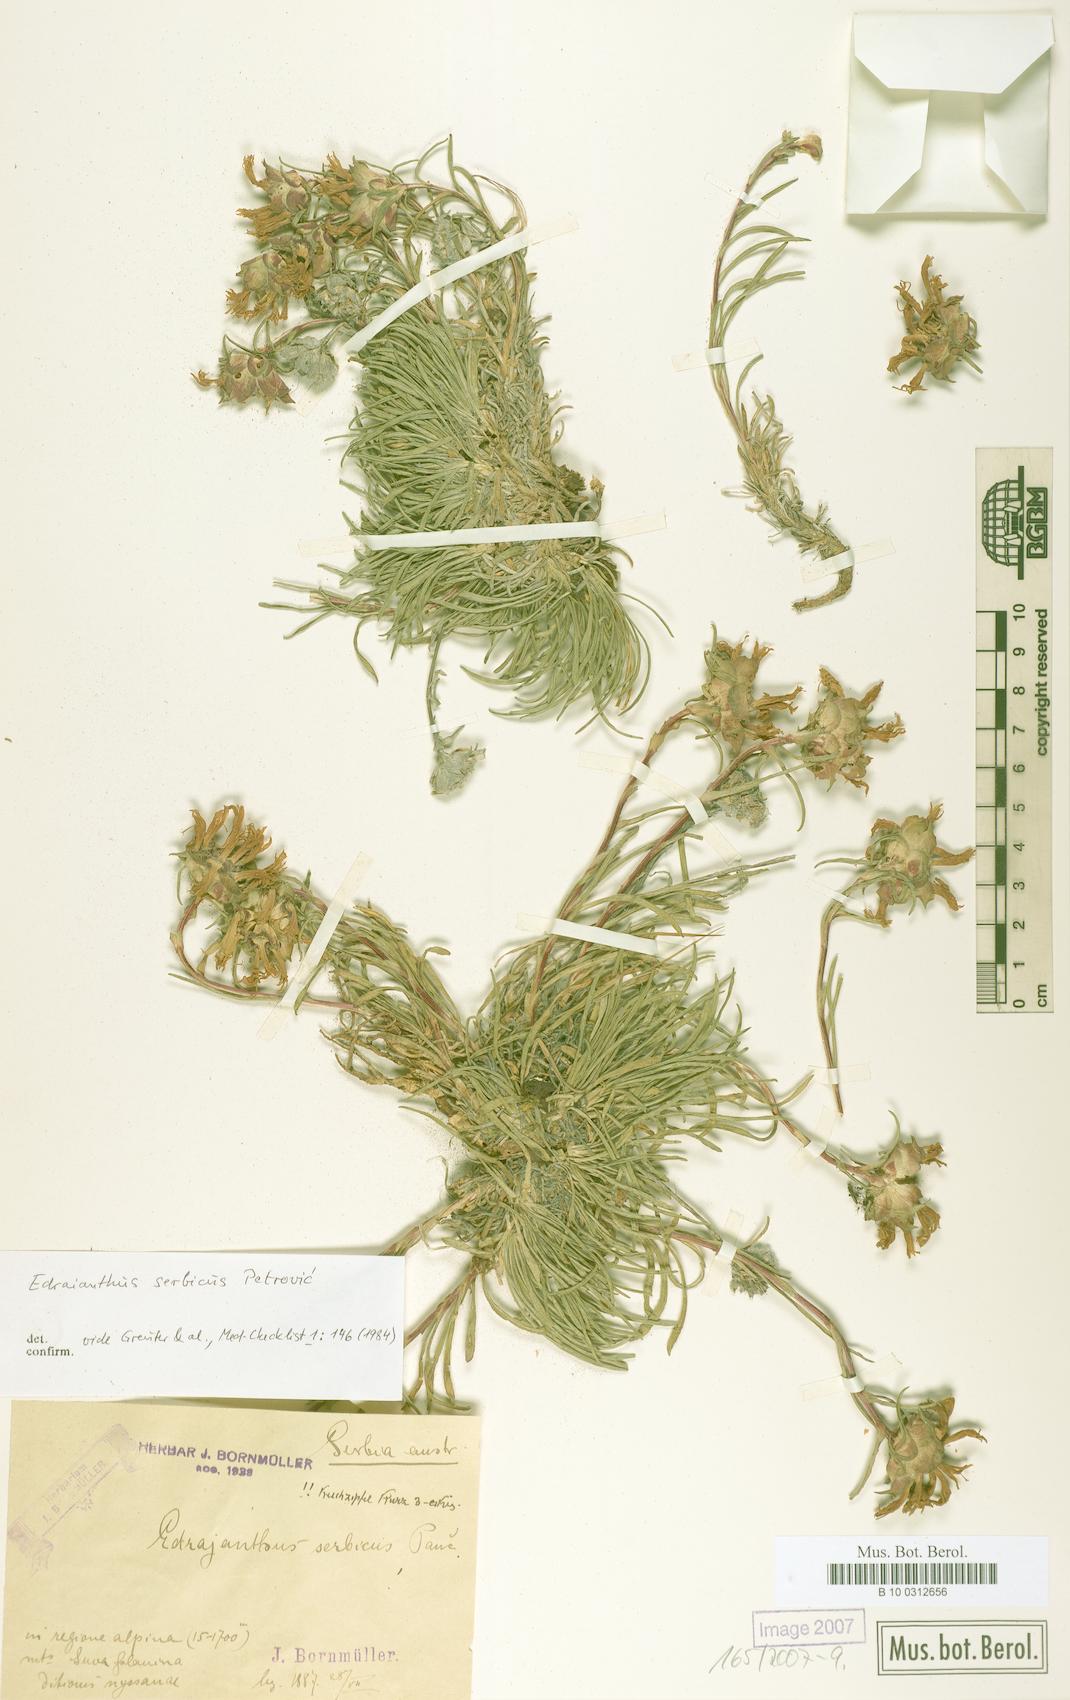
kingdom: Plantae
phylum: Tracheophyta
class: Magnoliopsida
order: Asterales
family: Campanulaceae
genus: Edraianthus
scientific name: Edraianthus serbicus
